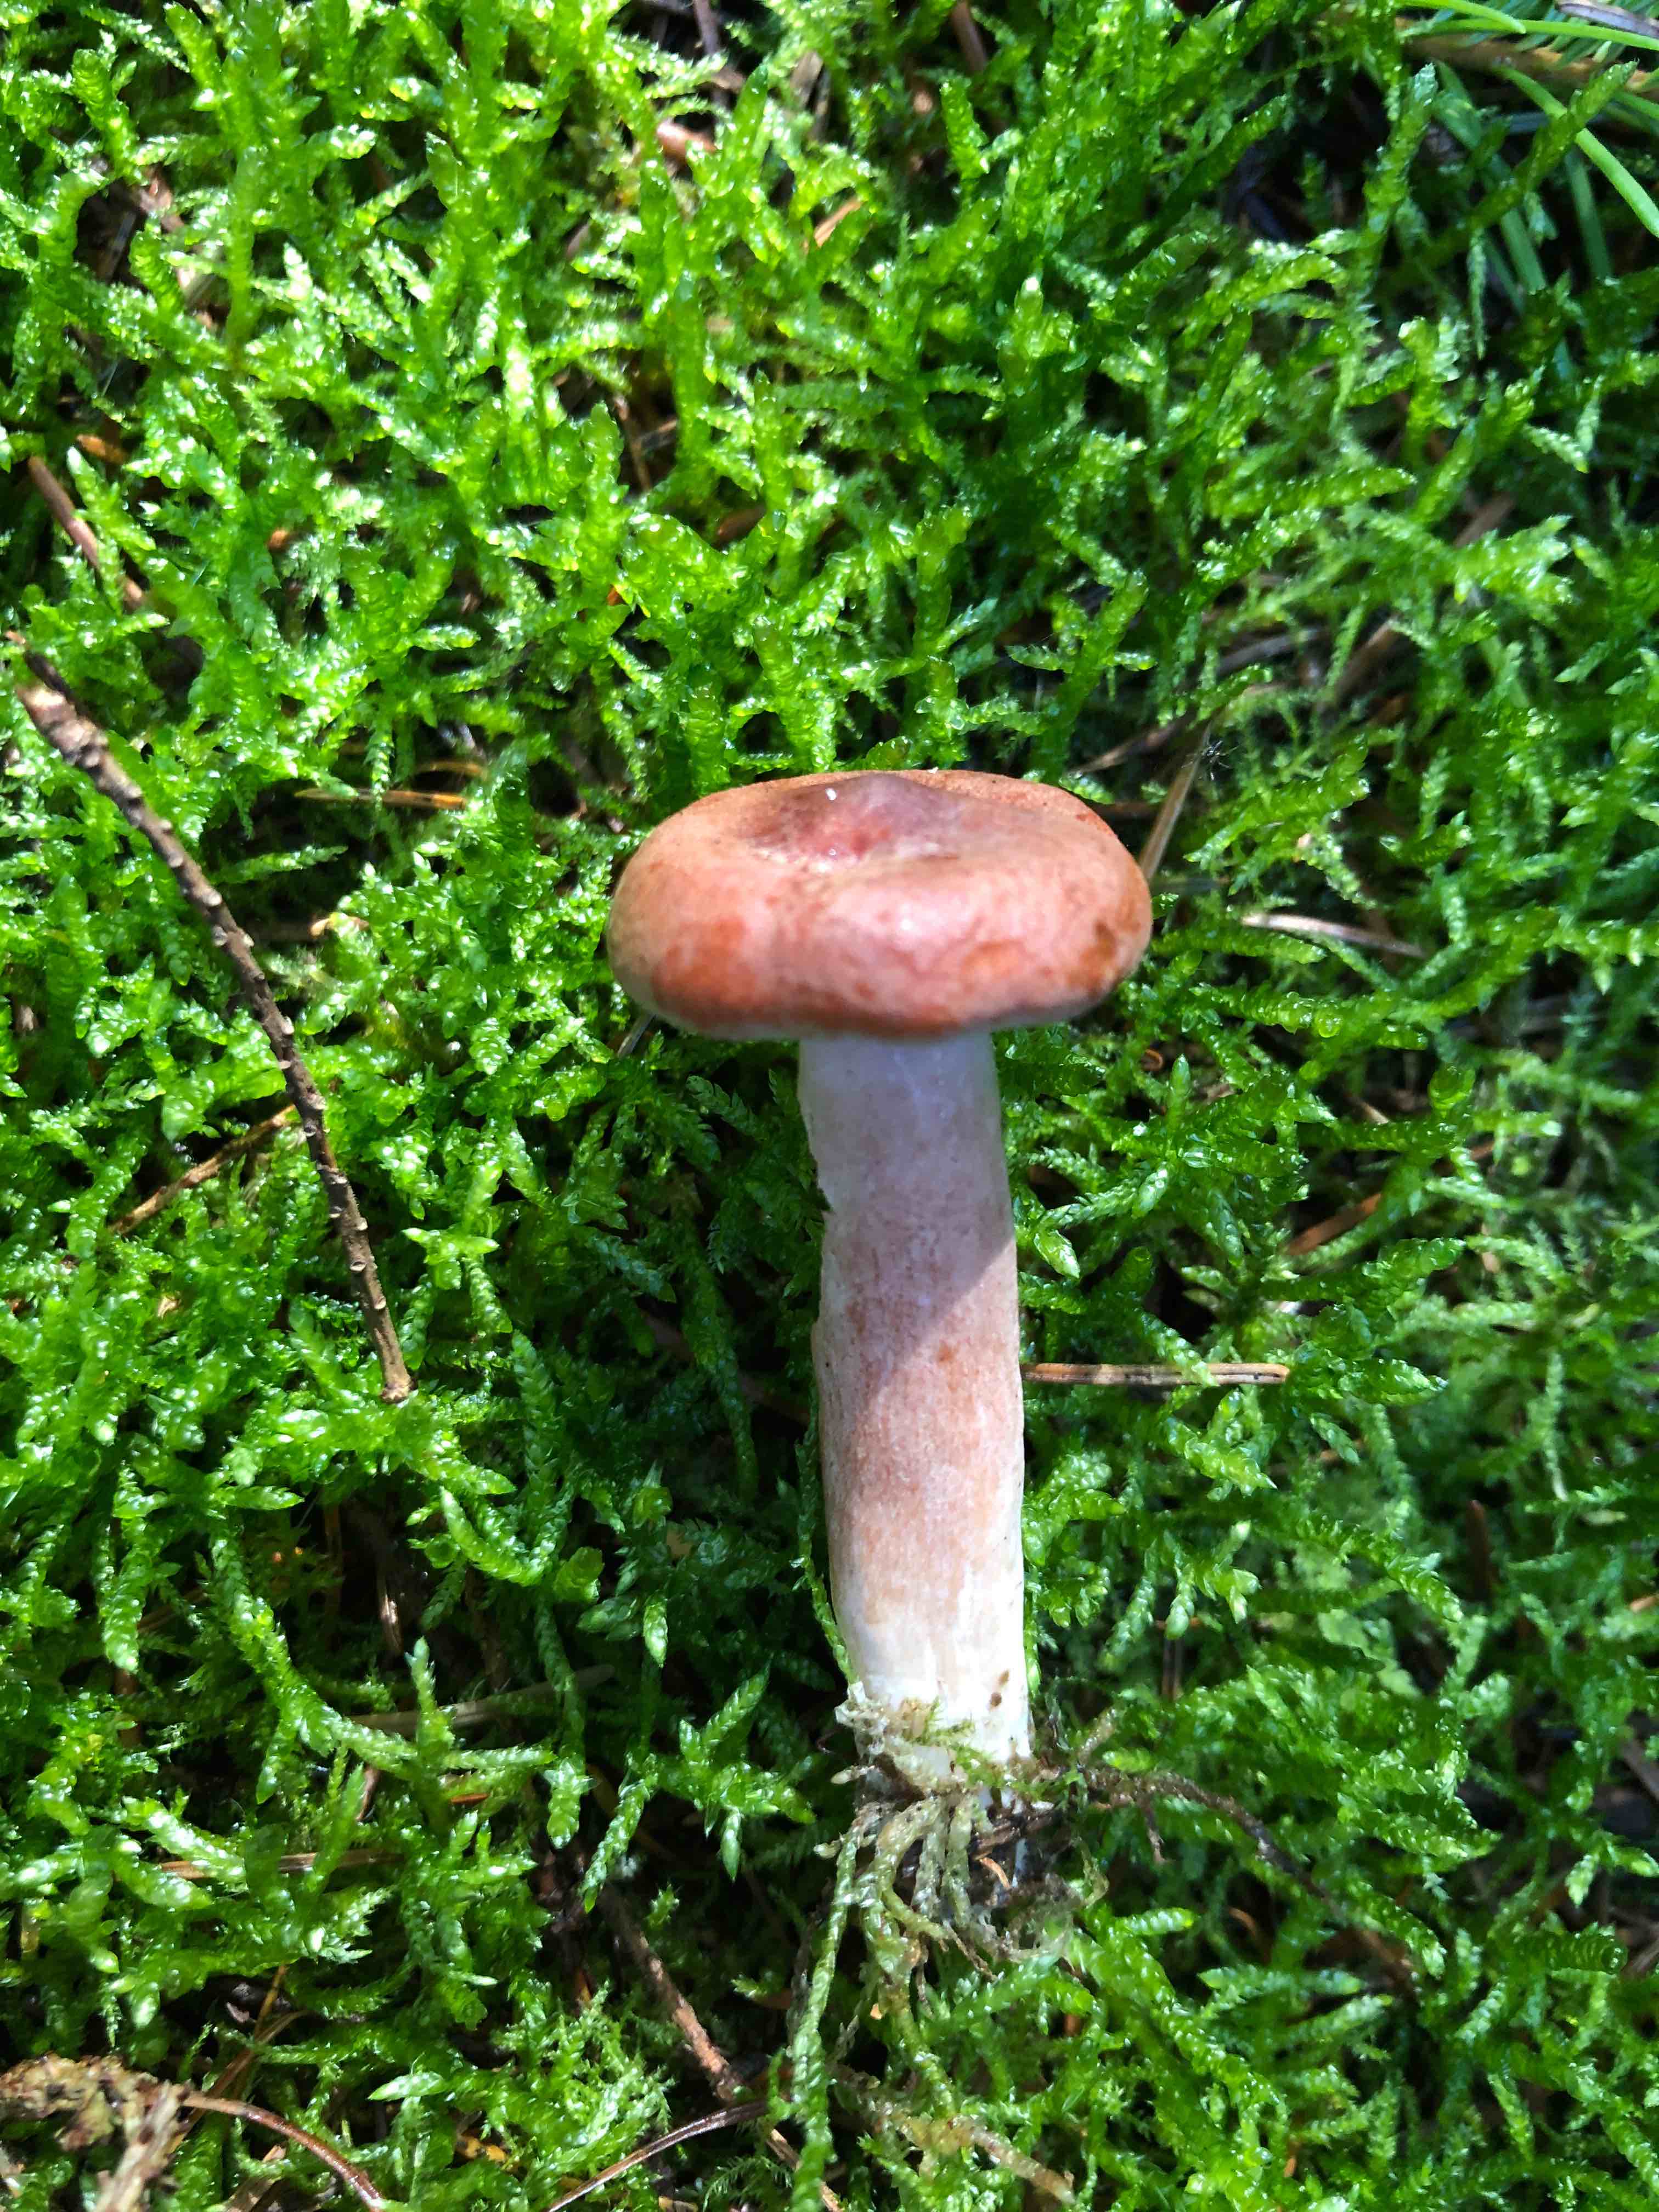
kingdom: Fungi
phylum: Basidiomycota
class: Agaricomycetes
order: Russulales
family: Russulaceae
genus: Lactarius
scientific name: Lactarius rufus
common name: rødbrun mælkehat
